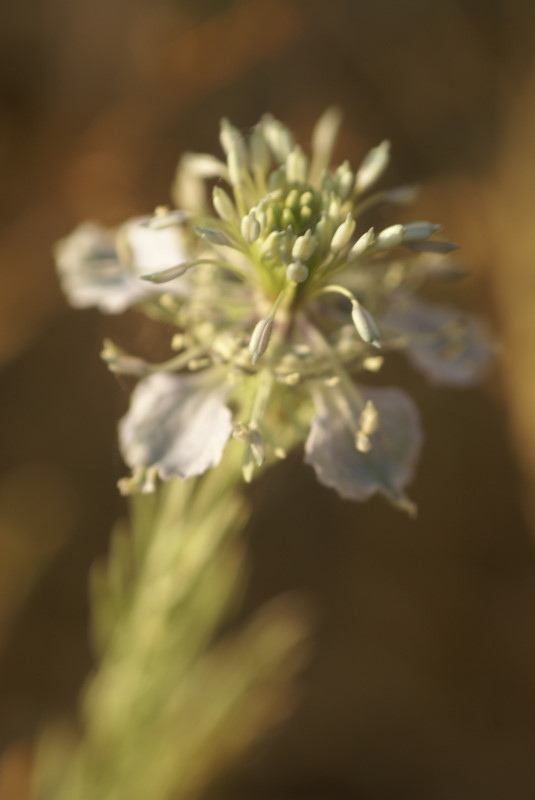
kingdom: Plantae
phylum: Tracheophyta
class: Magnoliopsida
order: Ranunculales
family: Ranunculaceae
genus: Nigella
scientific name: Nigella arvensis
